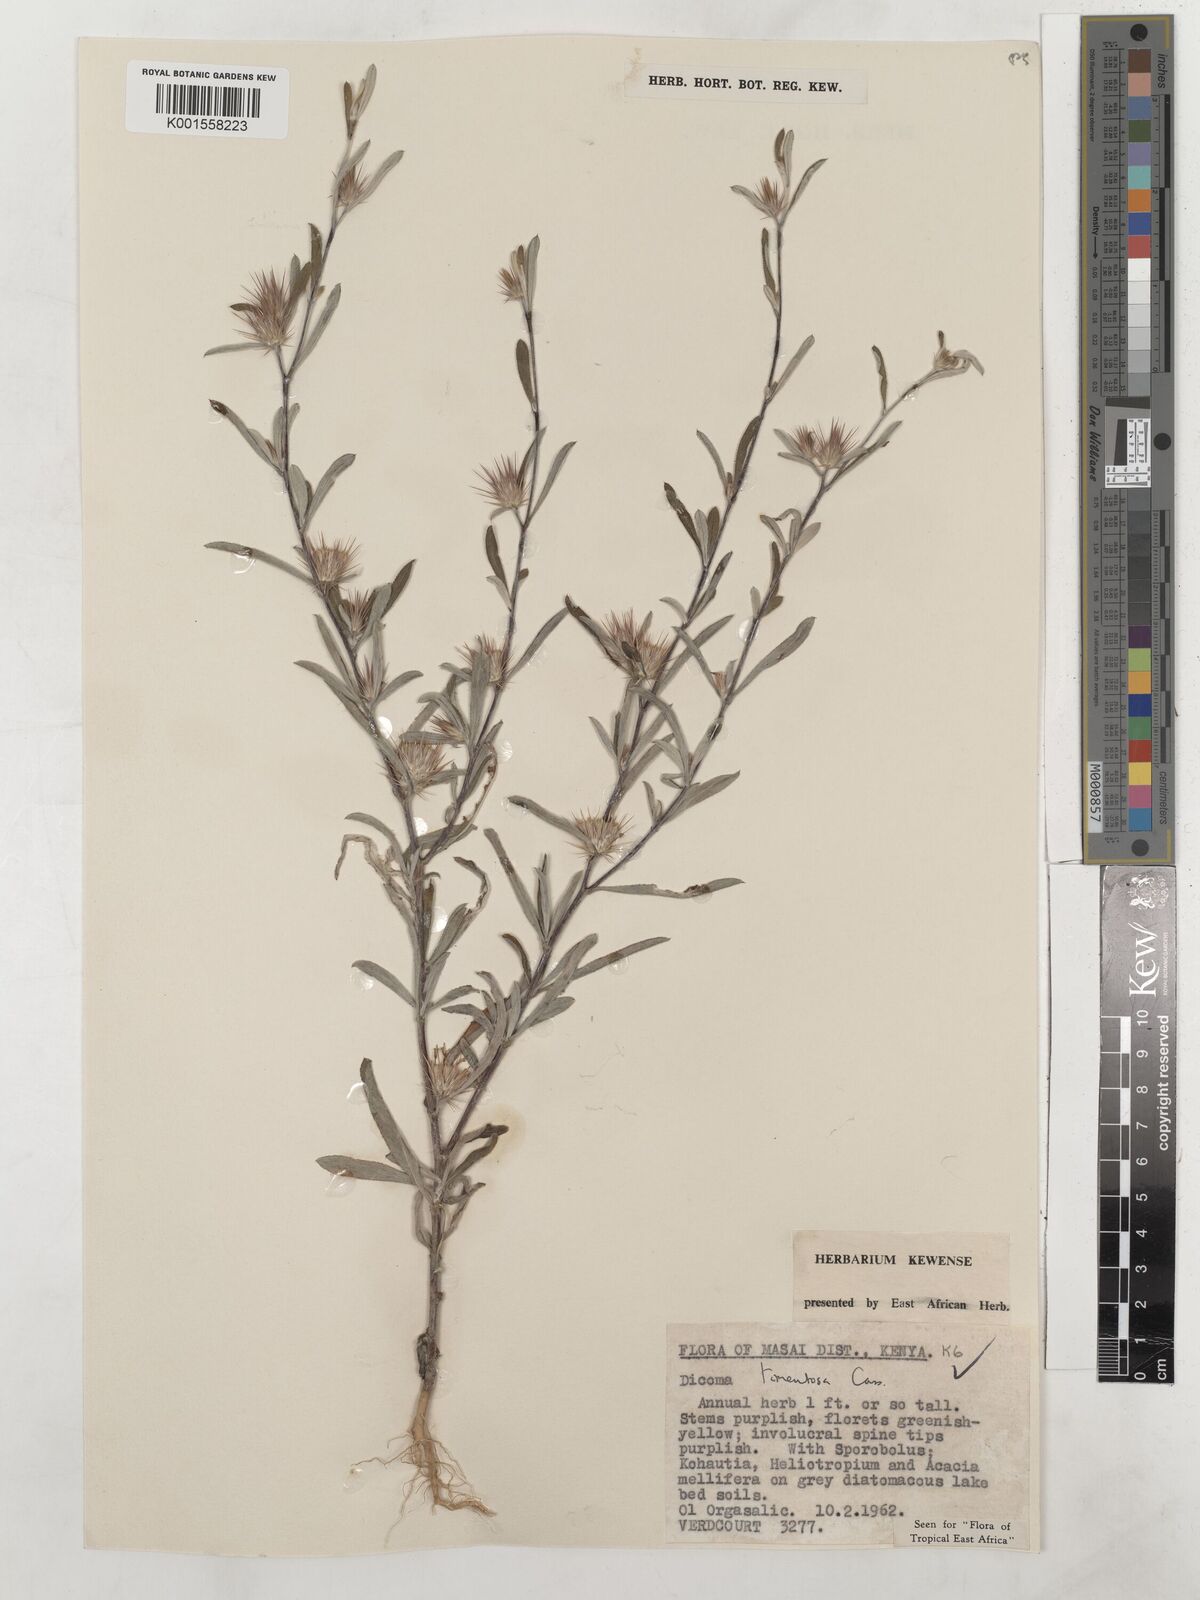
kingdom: Plantae
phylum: Tracheophyta
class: Magnoliopsida
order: Asterales
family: Asteraceae
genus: Dicoma
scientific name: Dicoma tomentosa
